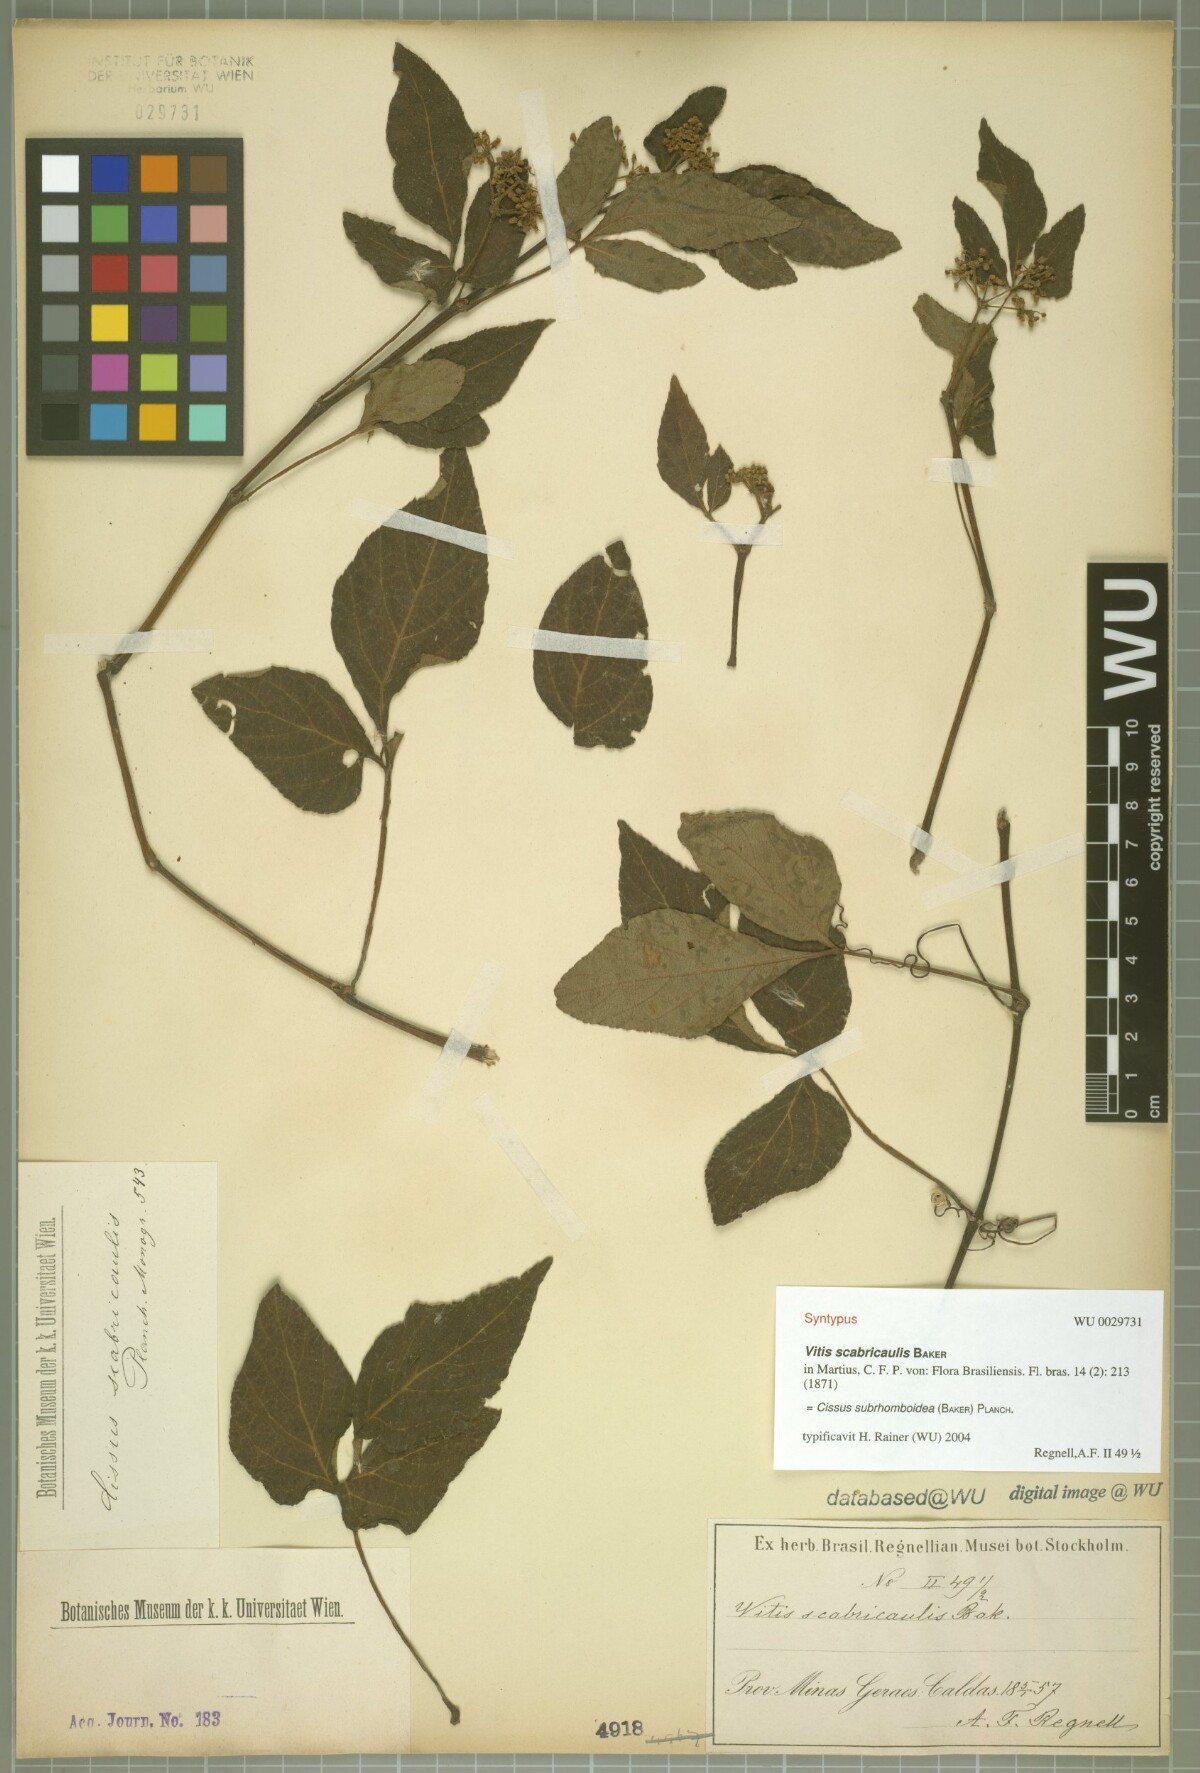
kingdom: Plantae
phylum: Tracheophyta
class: Magnoliopsida
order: Vitales
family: Vitaceae
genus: Cissus
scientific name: Cissus subrhomboidea
